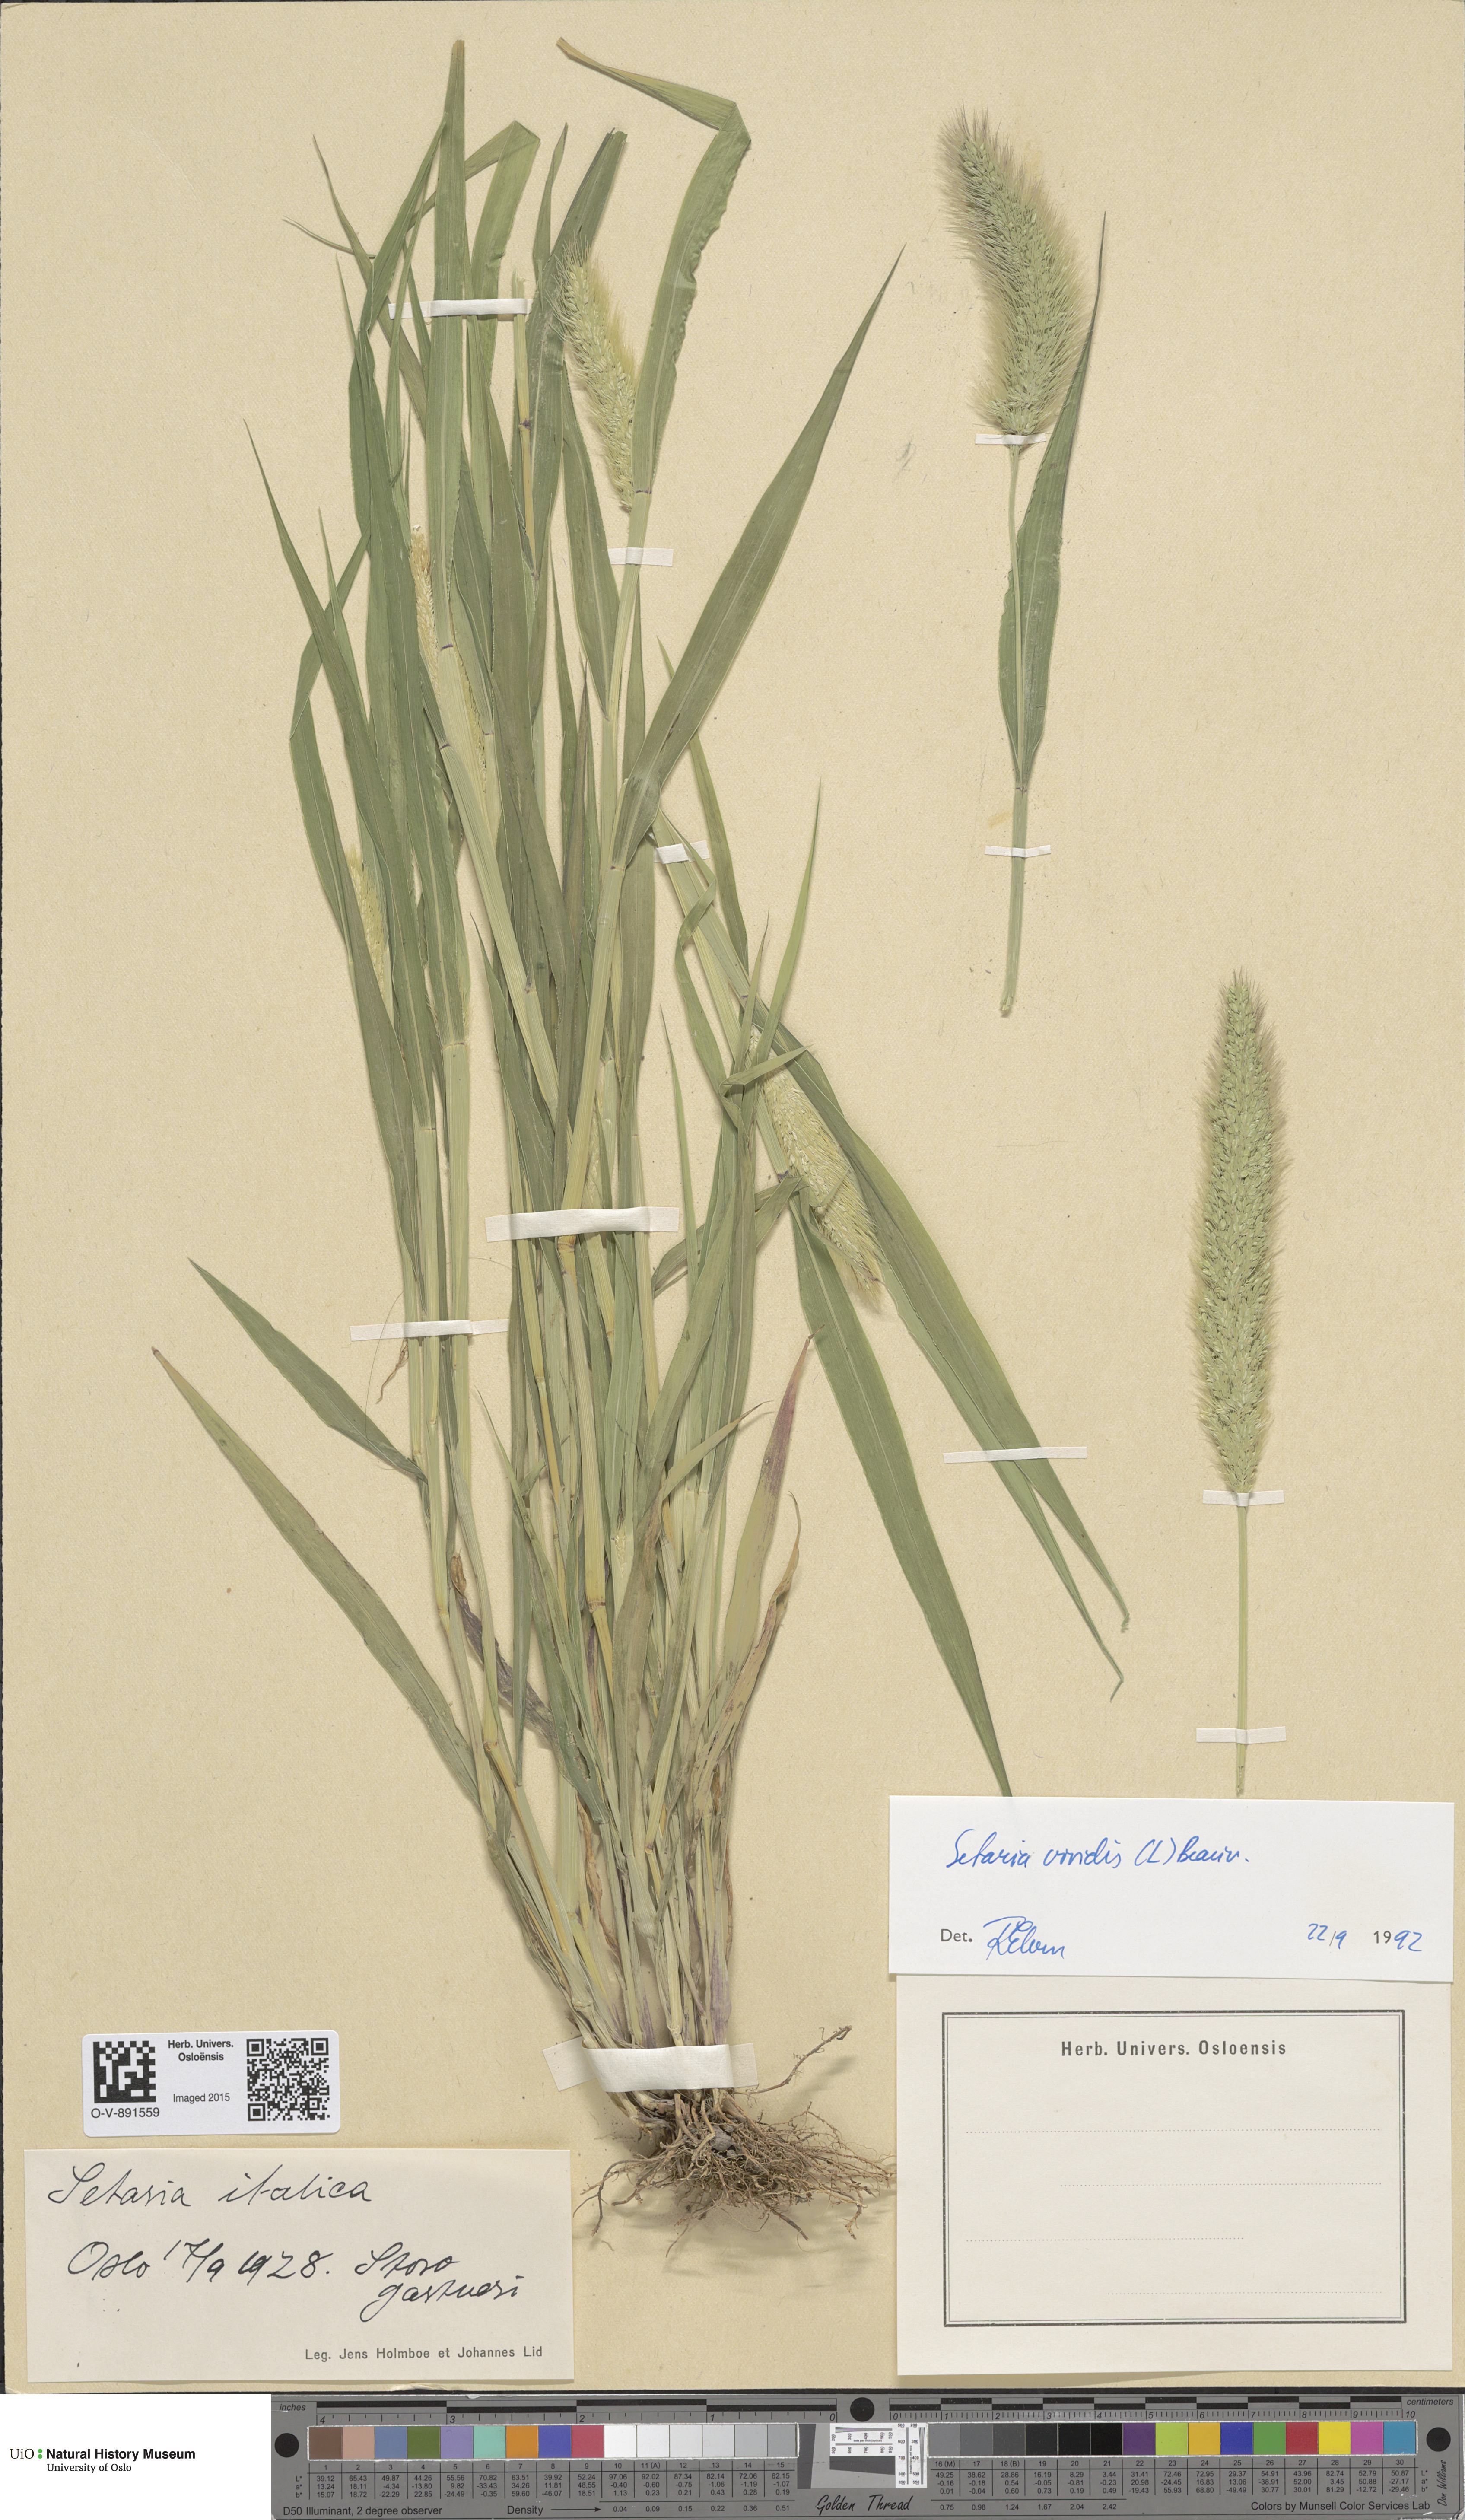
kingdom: Plantae
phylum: Tracheophyta
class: Liliopsida
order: Poales
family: Poaceae
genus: Setaria
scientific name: Setaria viridis
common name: Green bristlegrass
